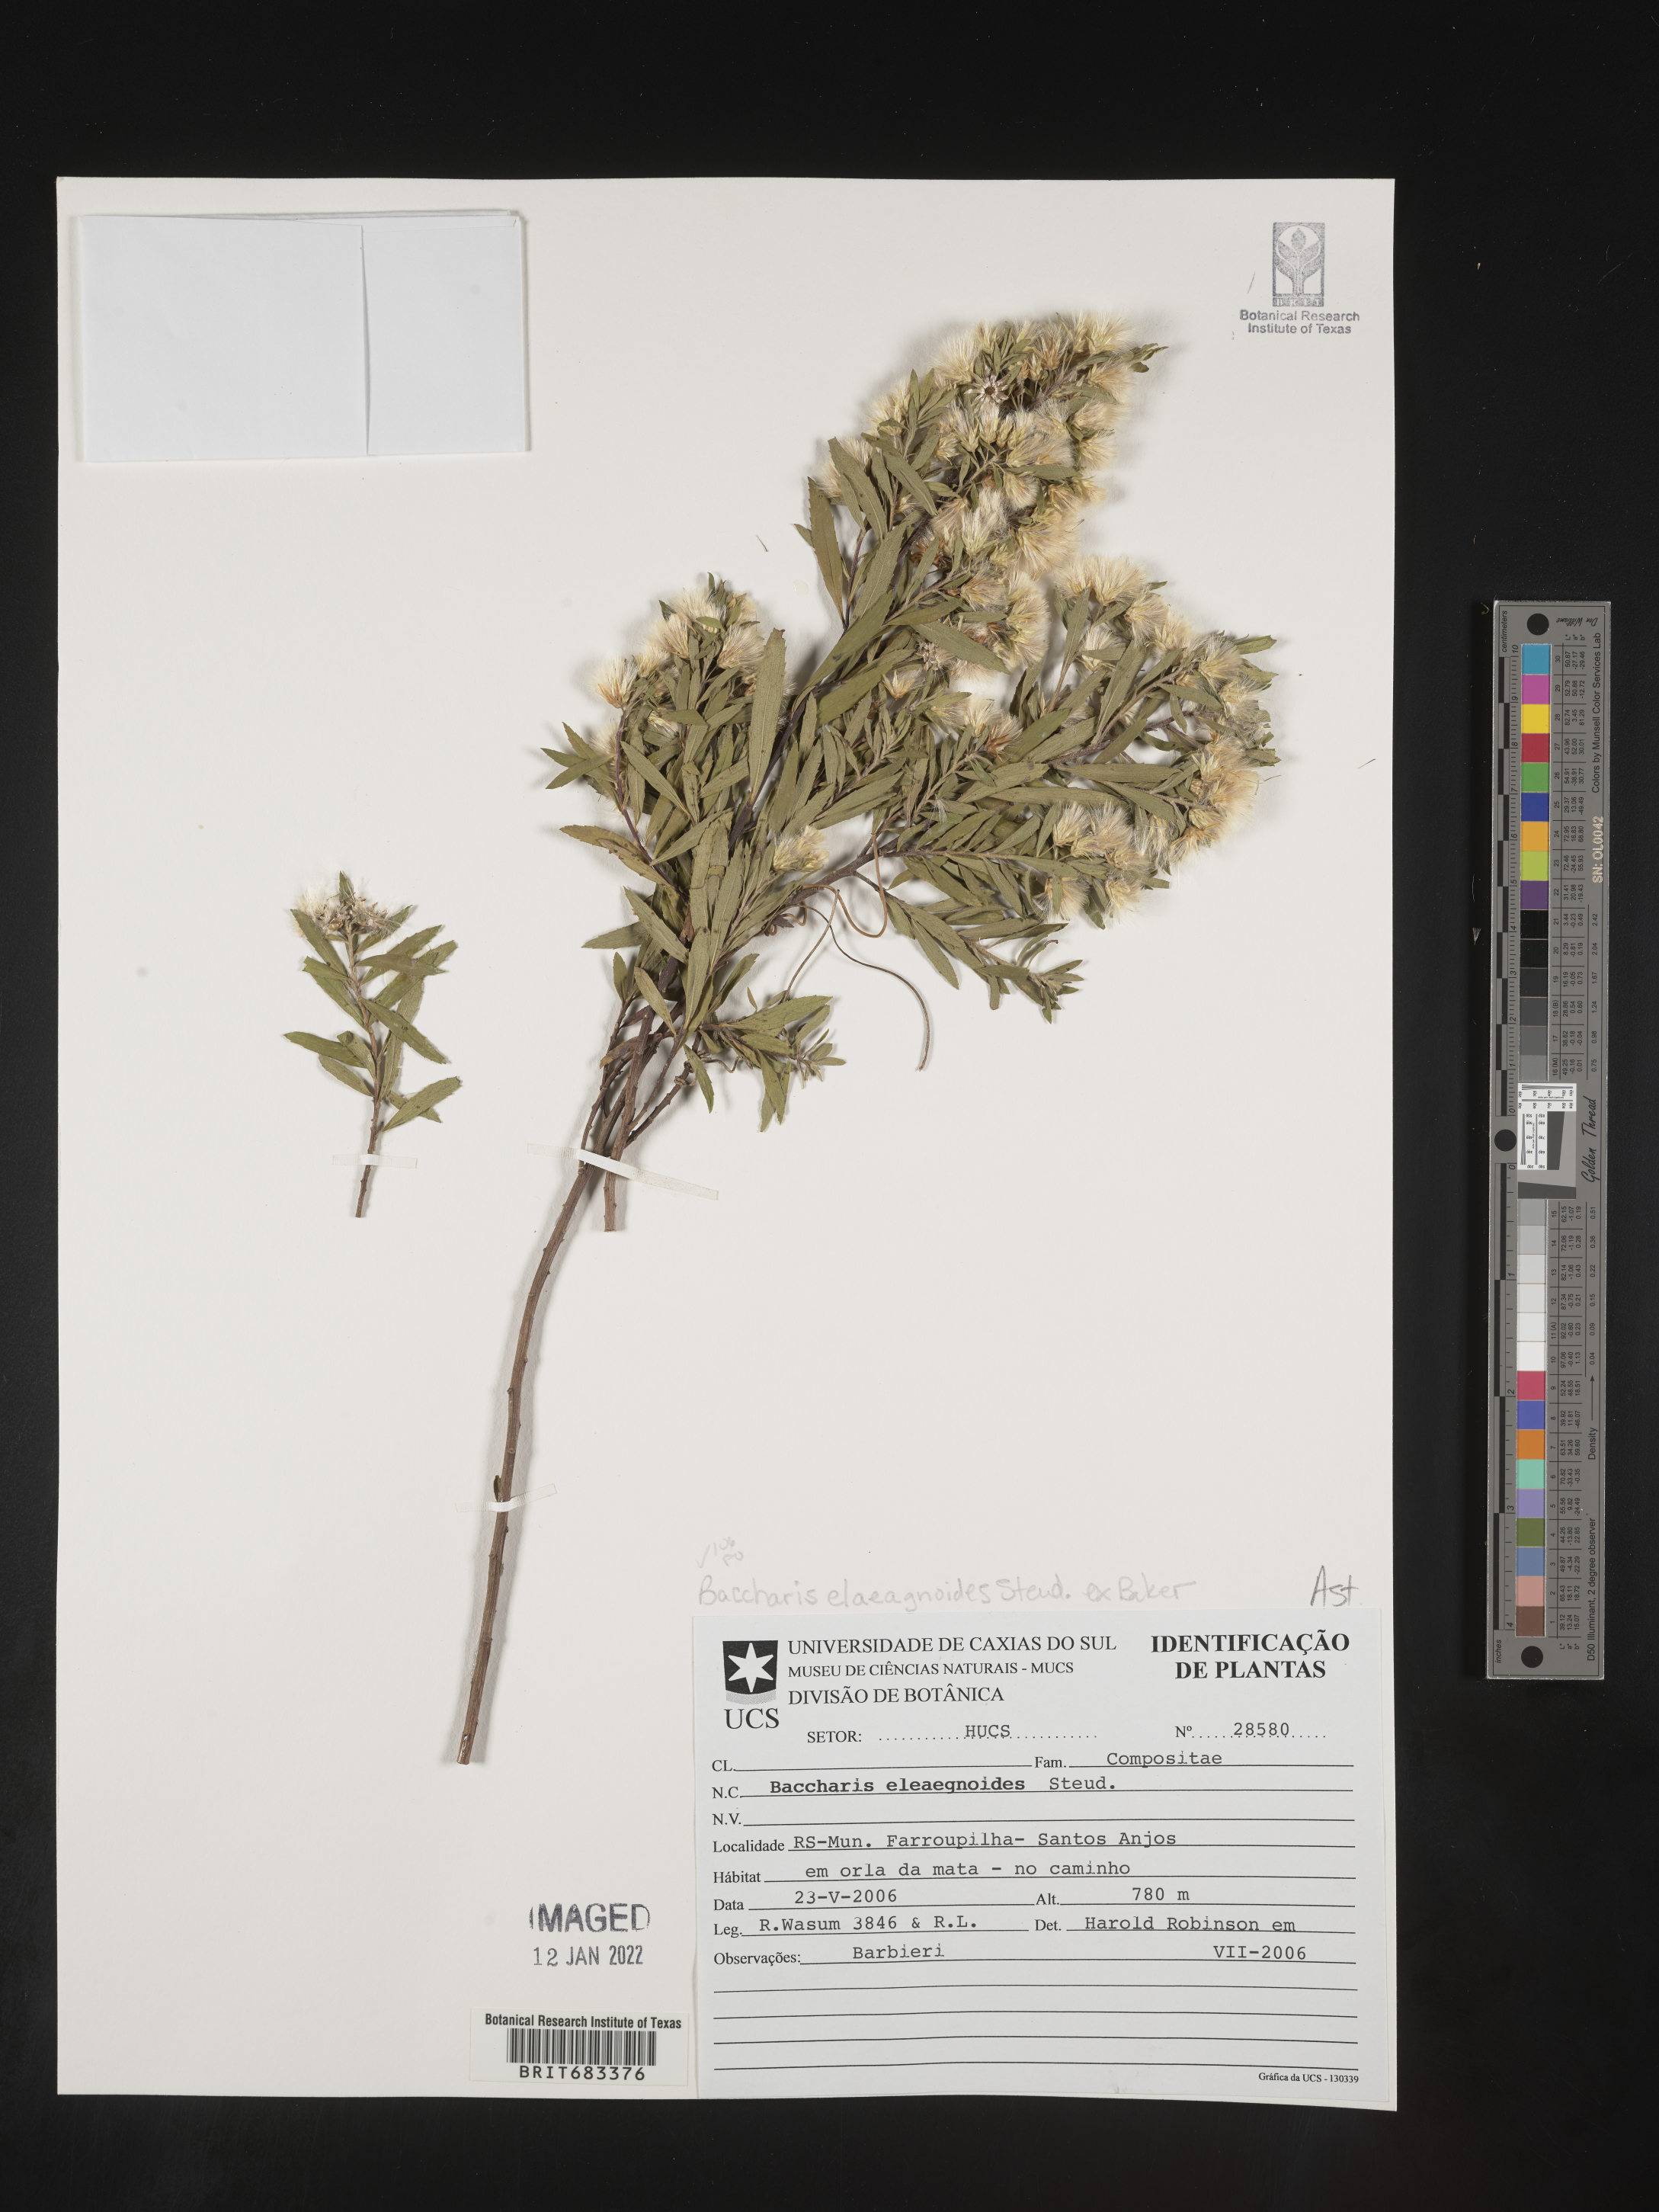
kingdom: Plantae
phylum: Tracheophyta
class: Magnoliopsida
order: Asterales
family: Asteraceae
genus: Baccharis
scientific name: Baccharis
